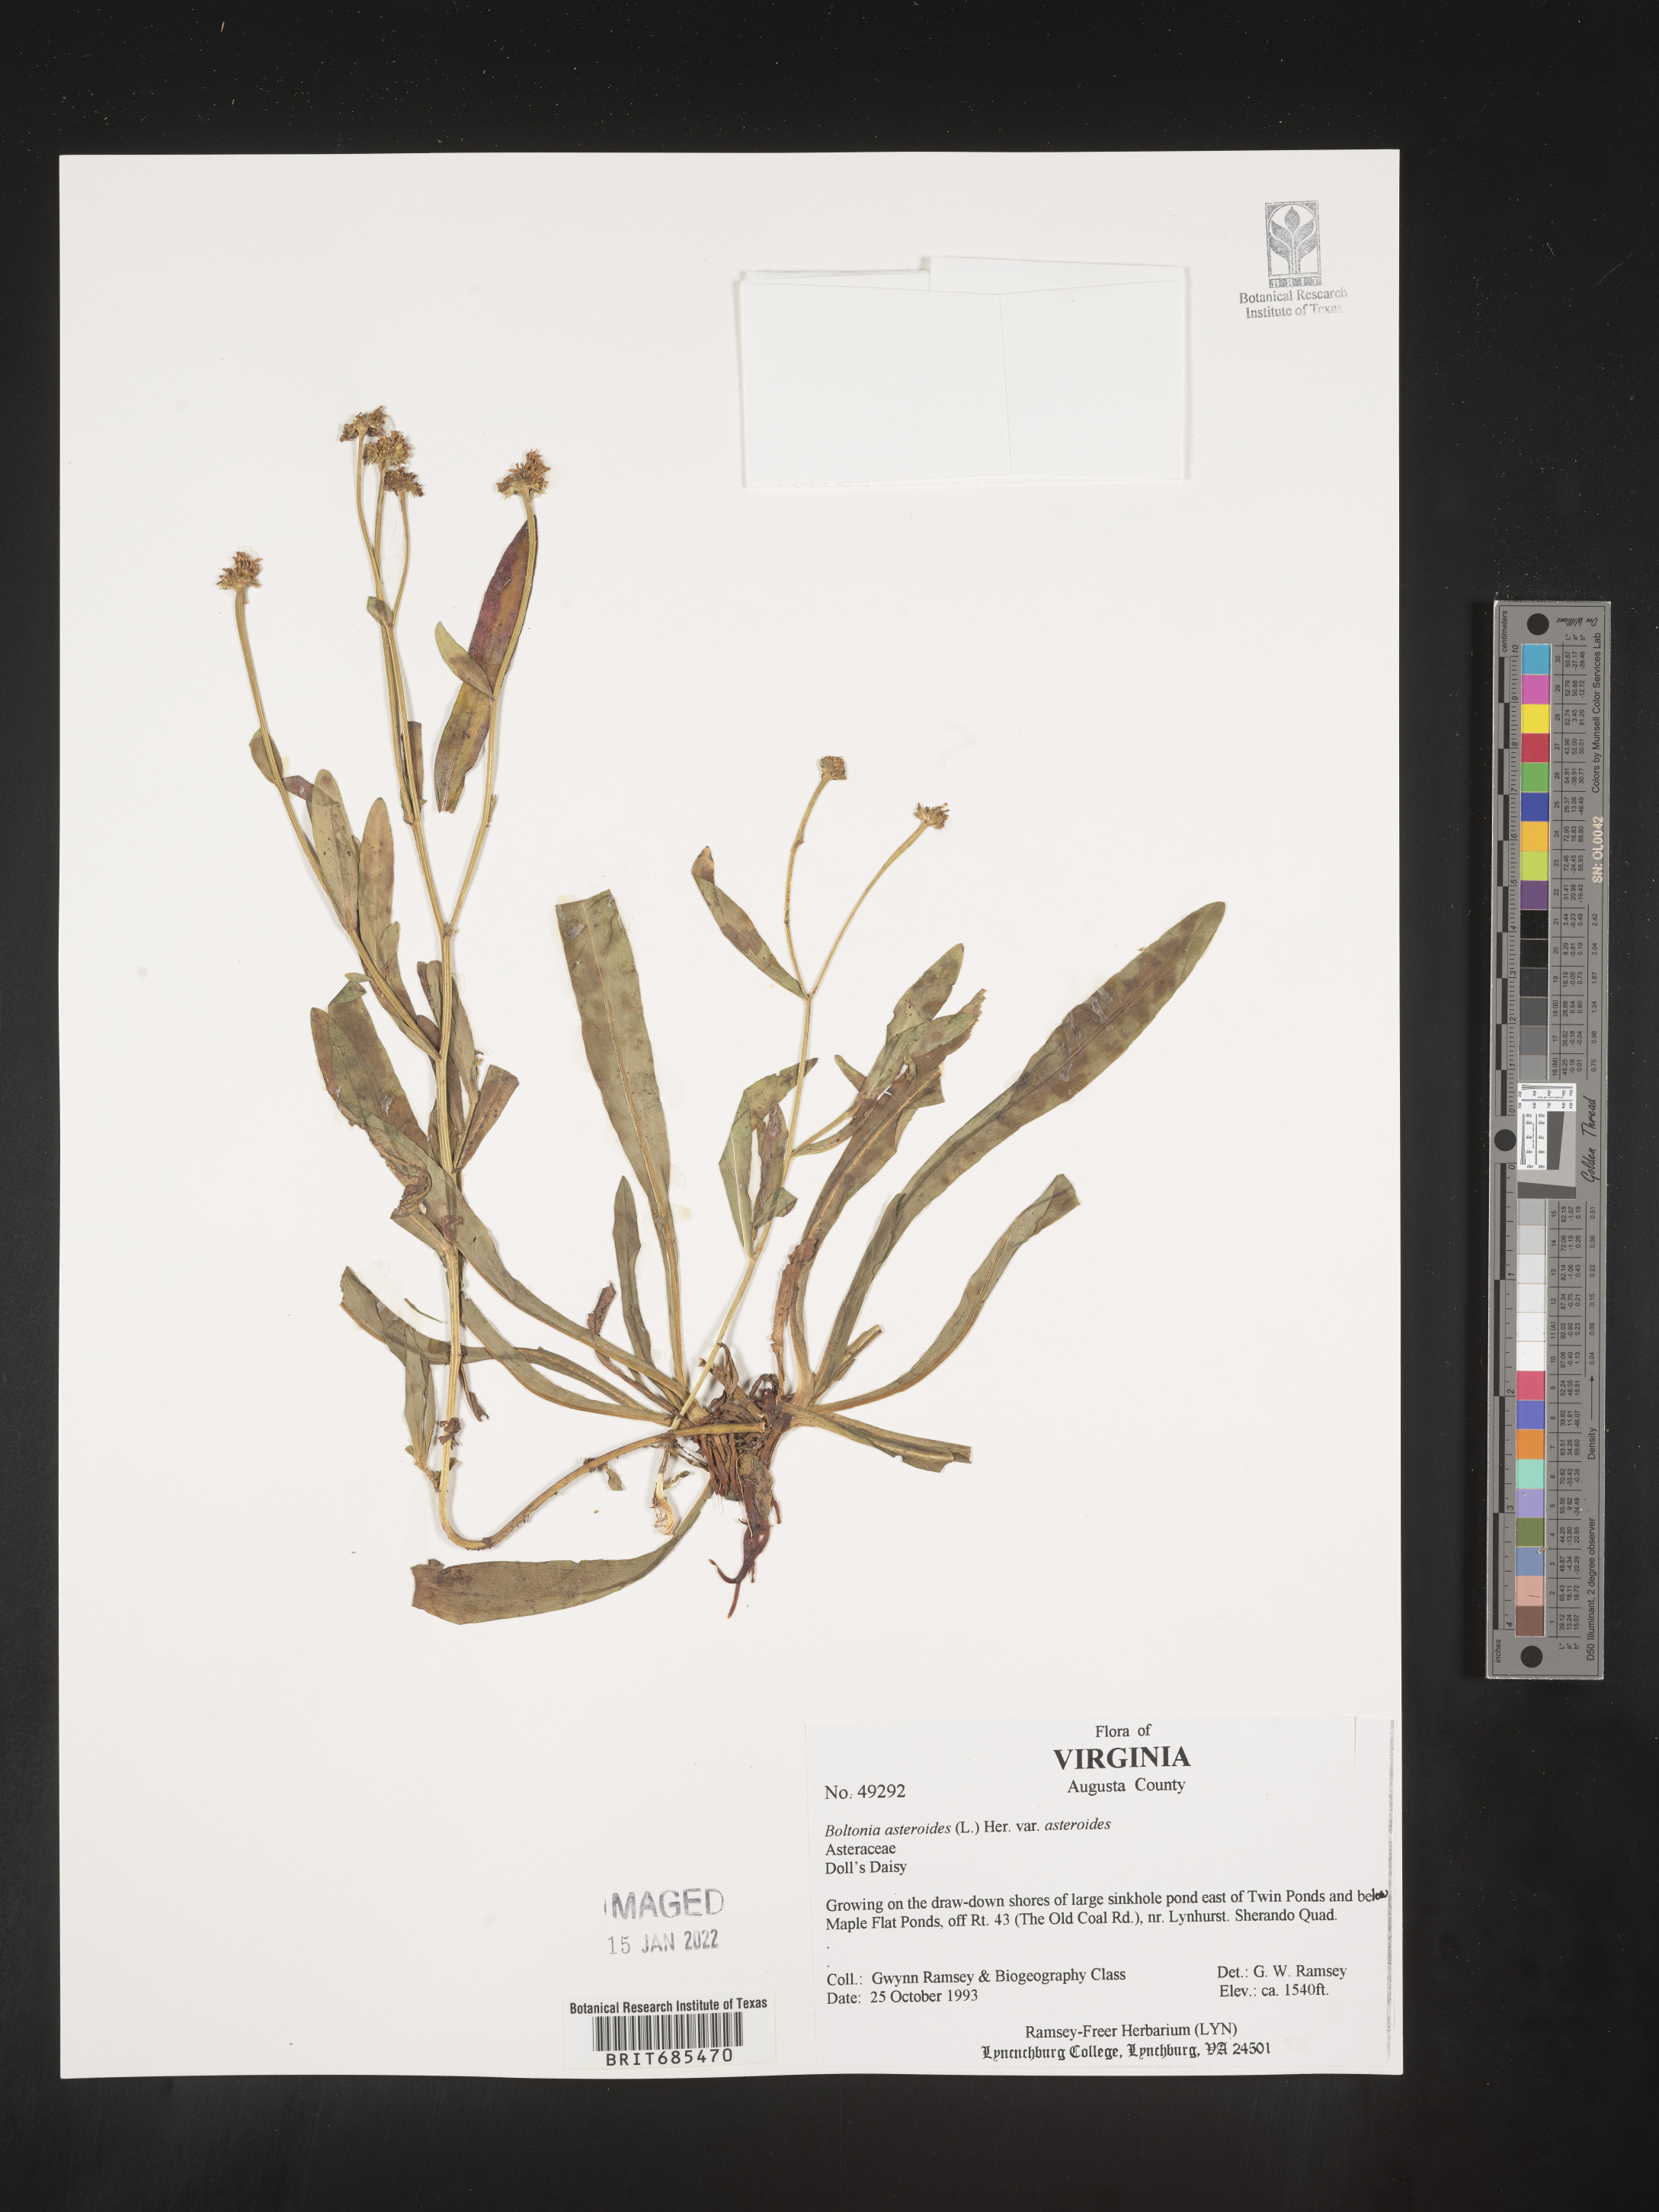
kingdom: Plantae
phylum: Tracheophyta
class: Magnoliopsida
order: Asterales
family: Asteraceae
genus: Boltonia
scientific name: Boltonia asteroides
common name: False chamomile
